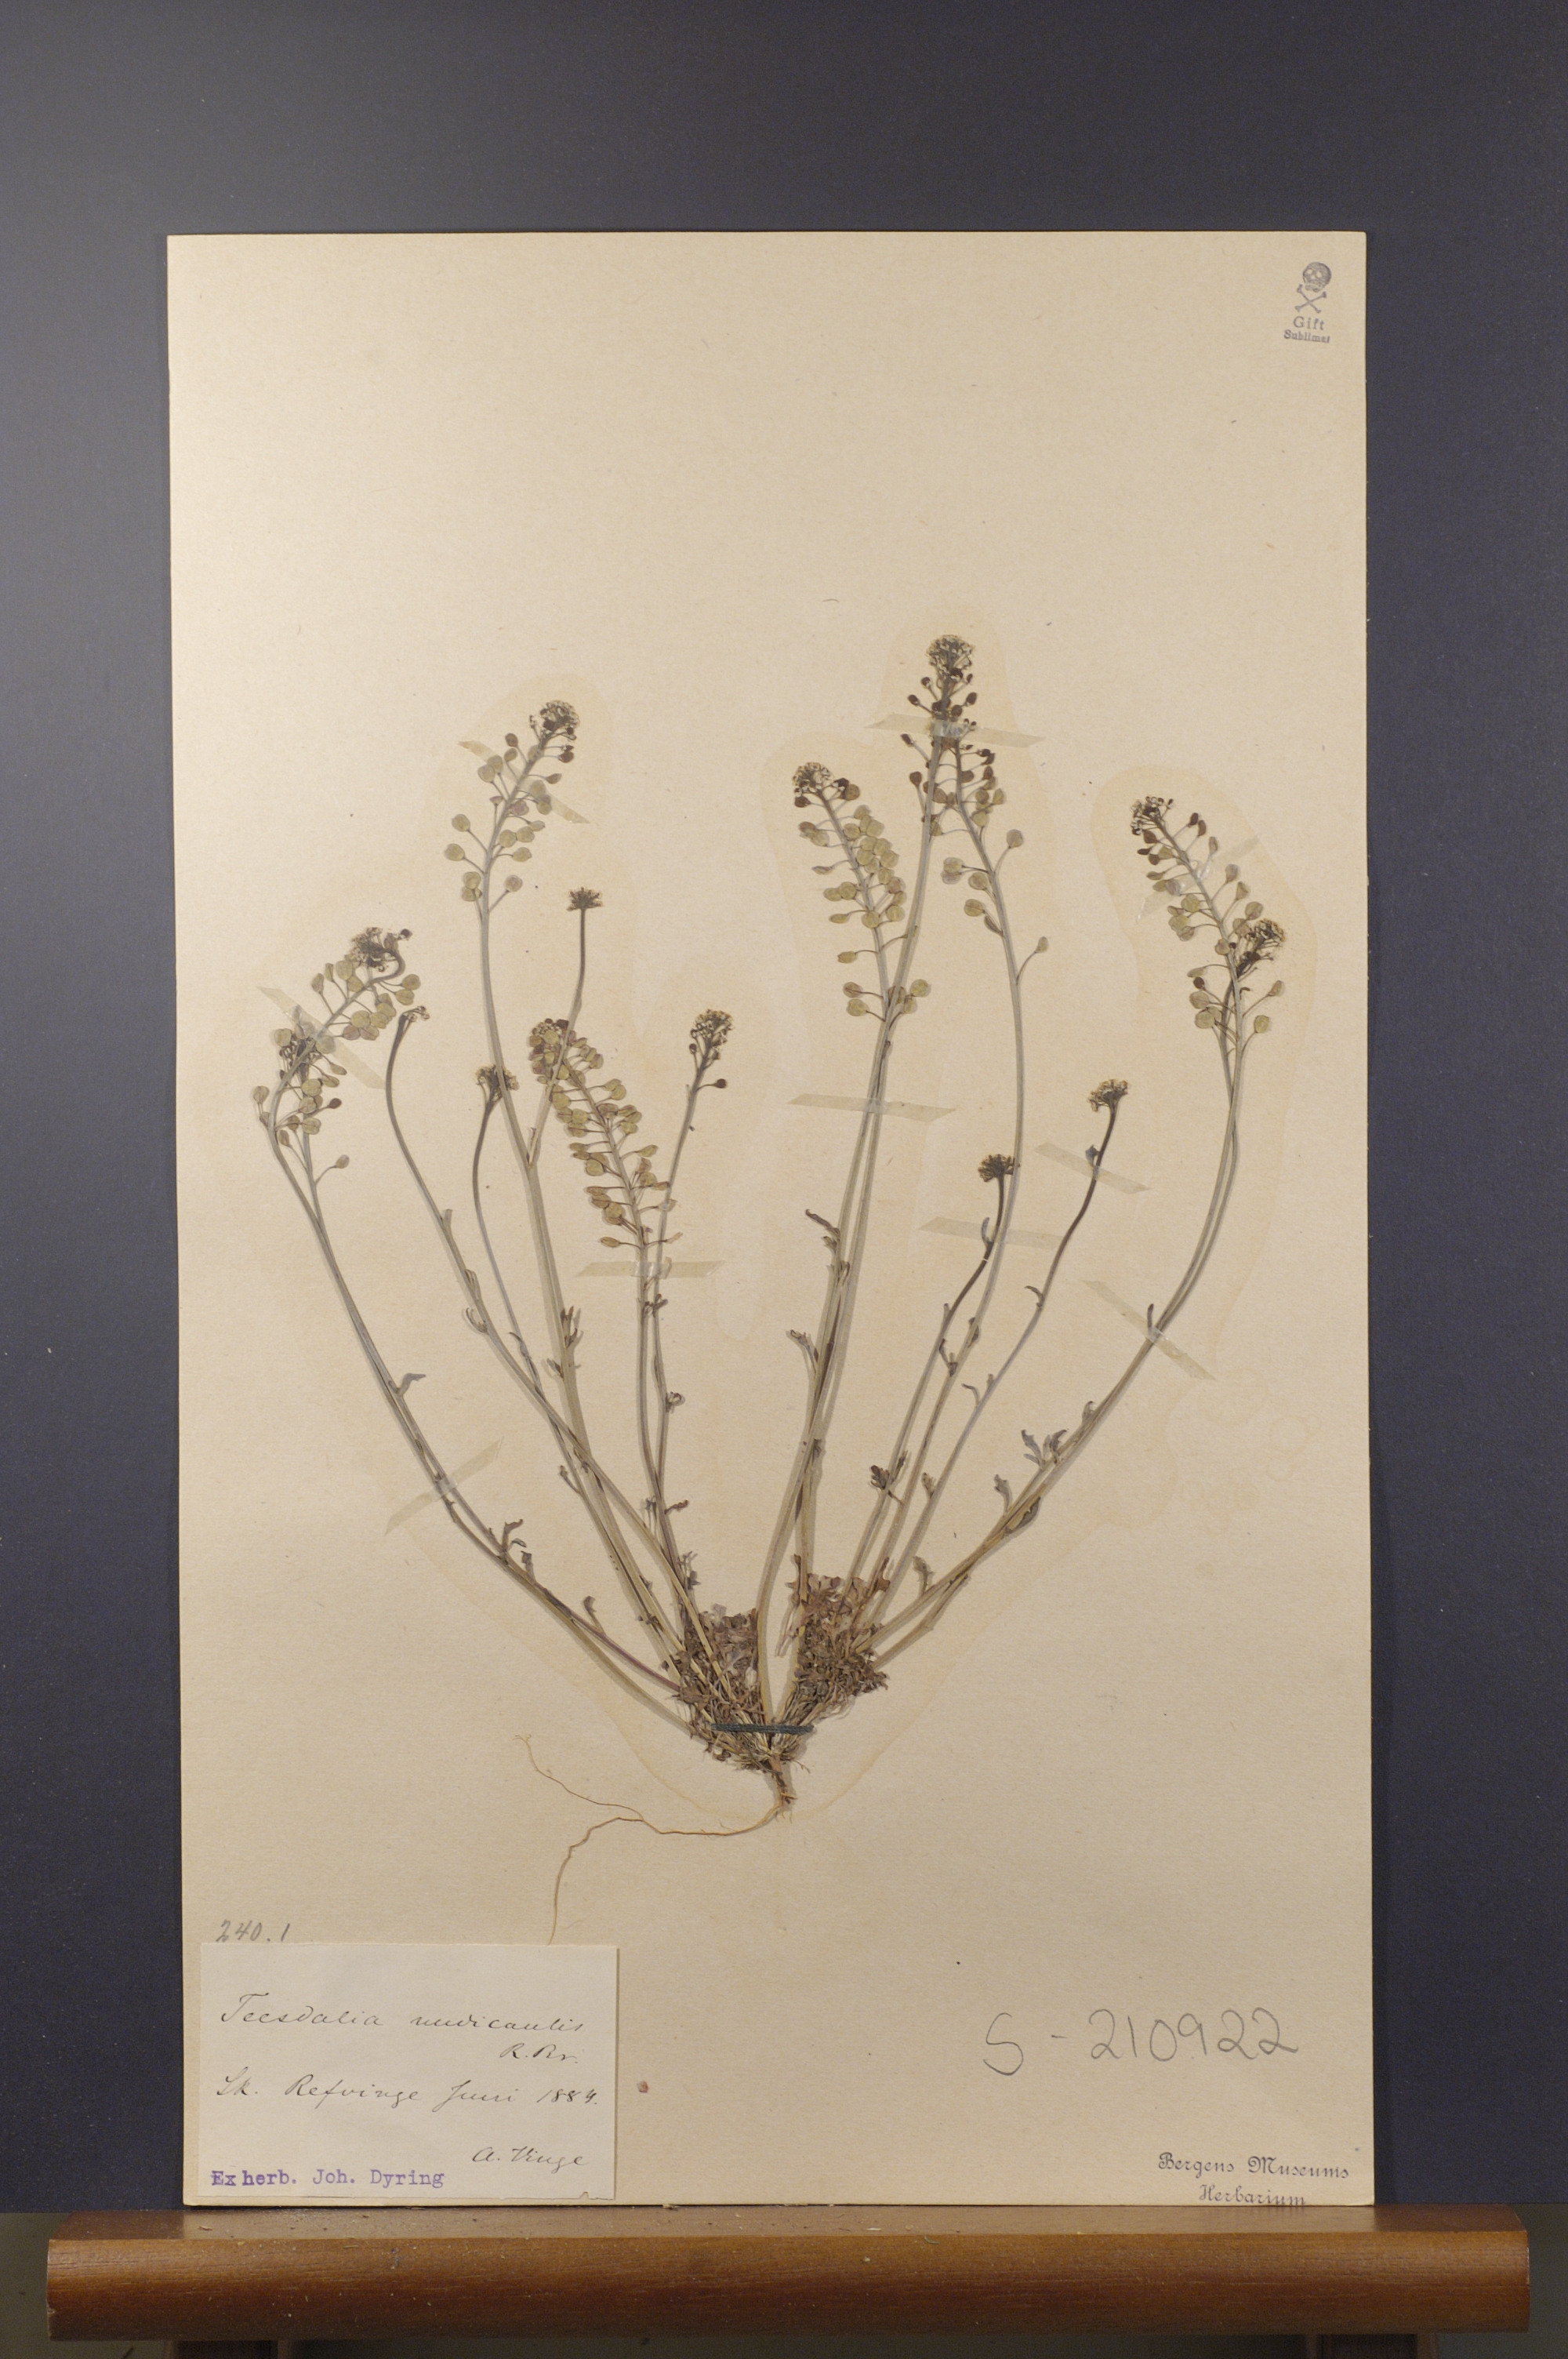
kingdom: Plantae
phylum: Tracheophyta
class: Magnoliopsida
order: Brassicales
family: Brassicaceae
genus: Teesdalia
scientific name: Teesdalia nudicaulis
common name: Shepherd's cress
